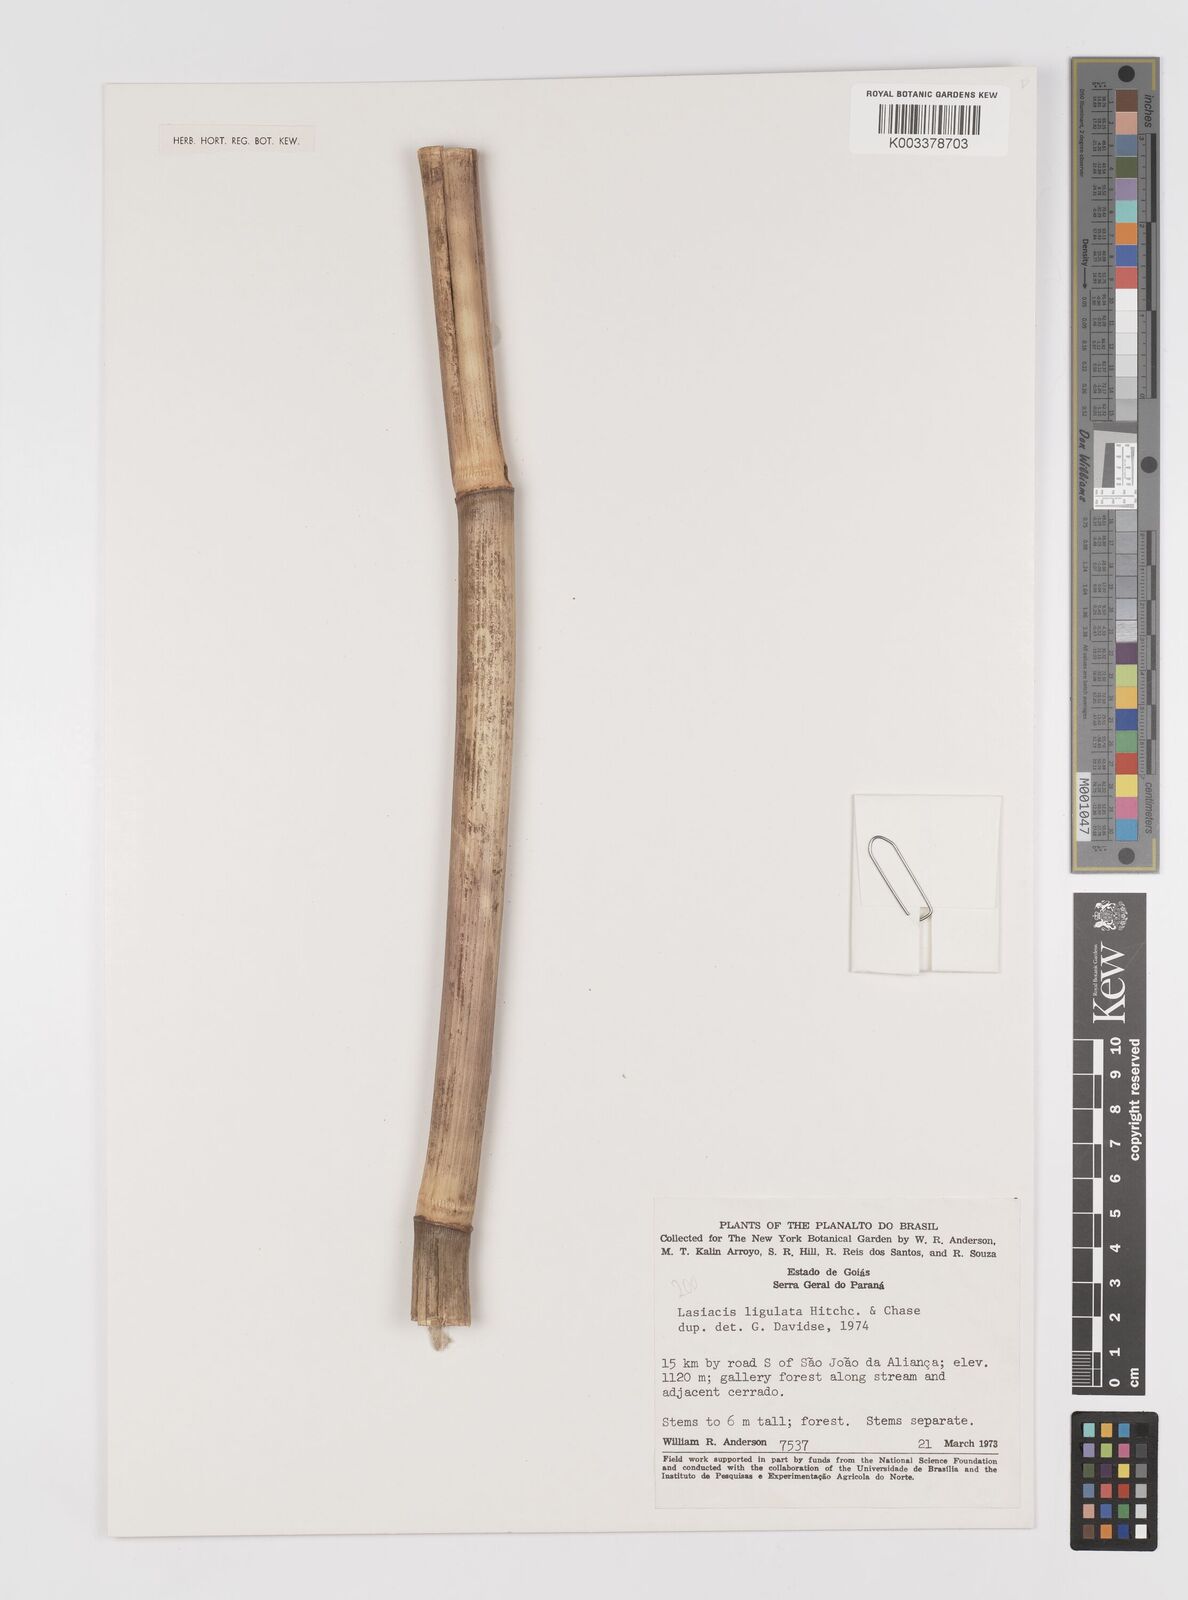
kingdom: Plantae
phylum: Tracheophyta
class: Liliopsida
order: Poales
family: Poaceae
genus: Lasiacis
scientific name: Lasiacis ligulata
